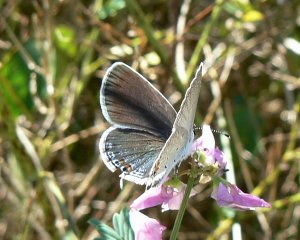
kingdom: Animalia
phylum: Arthropoda
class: Insecta
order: Lepidoptera
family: Lycaenidae
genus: Elkalyce
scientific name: Elkalyce comyntas
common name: Eastern Tailed-Blue
